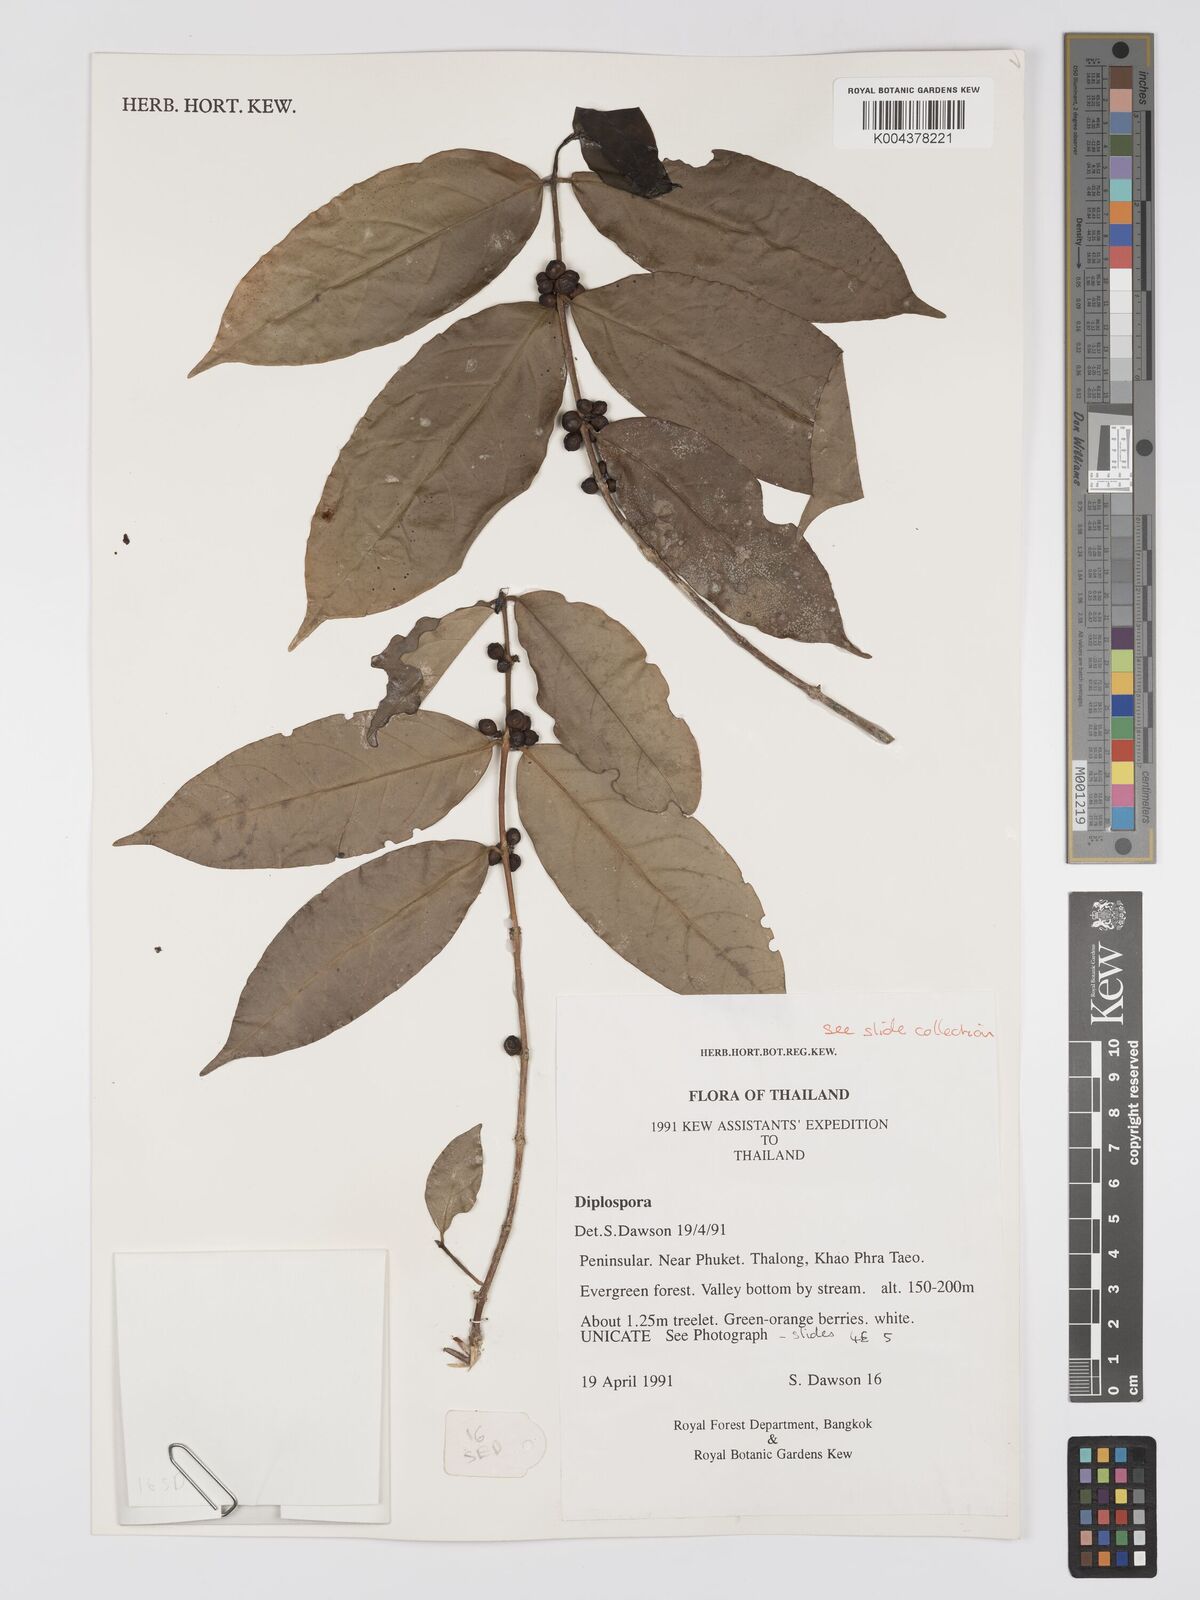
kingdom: Plantae
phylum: Tracheophyta
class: Magnoliopsida
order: Gentianales
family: Rubiaceae
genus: Diplospora
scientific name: Diplospora
